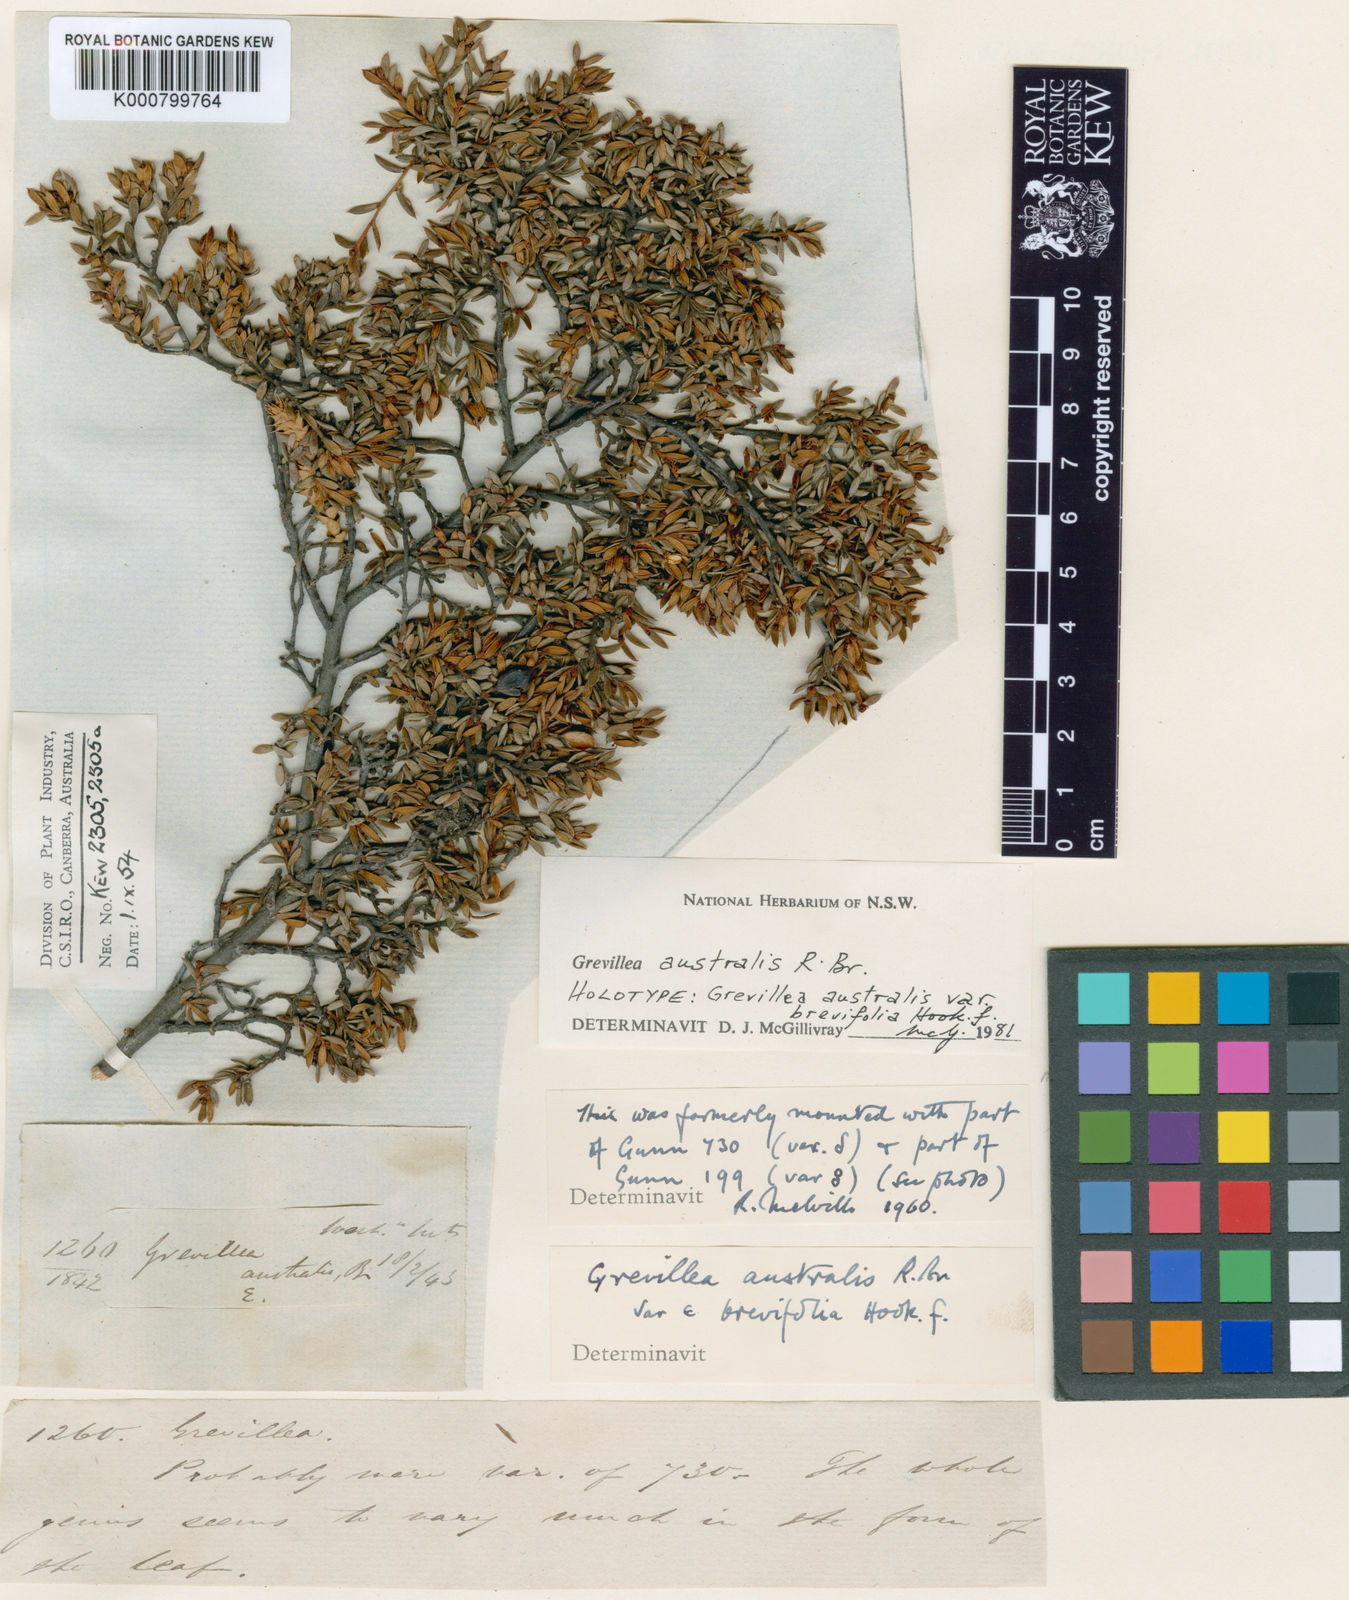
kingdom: Plantae
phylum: Tracheophyta
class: Magnoliopsida
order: Proteales
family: Proteaceae
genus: Grevillea
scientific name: Grevillea australis
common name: Alpine grevillea
